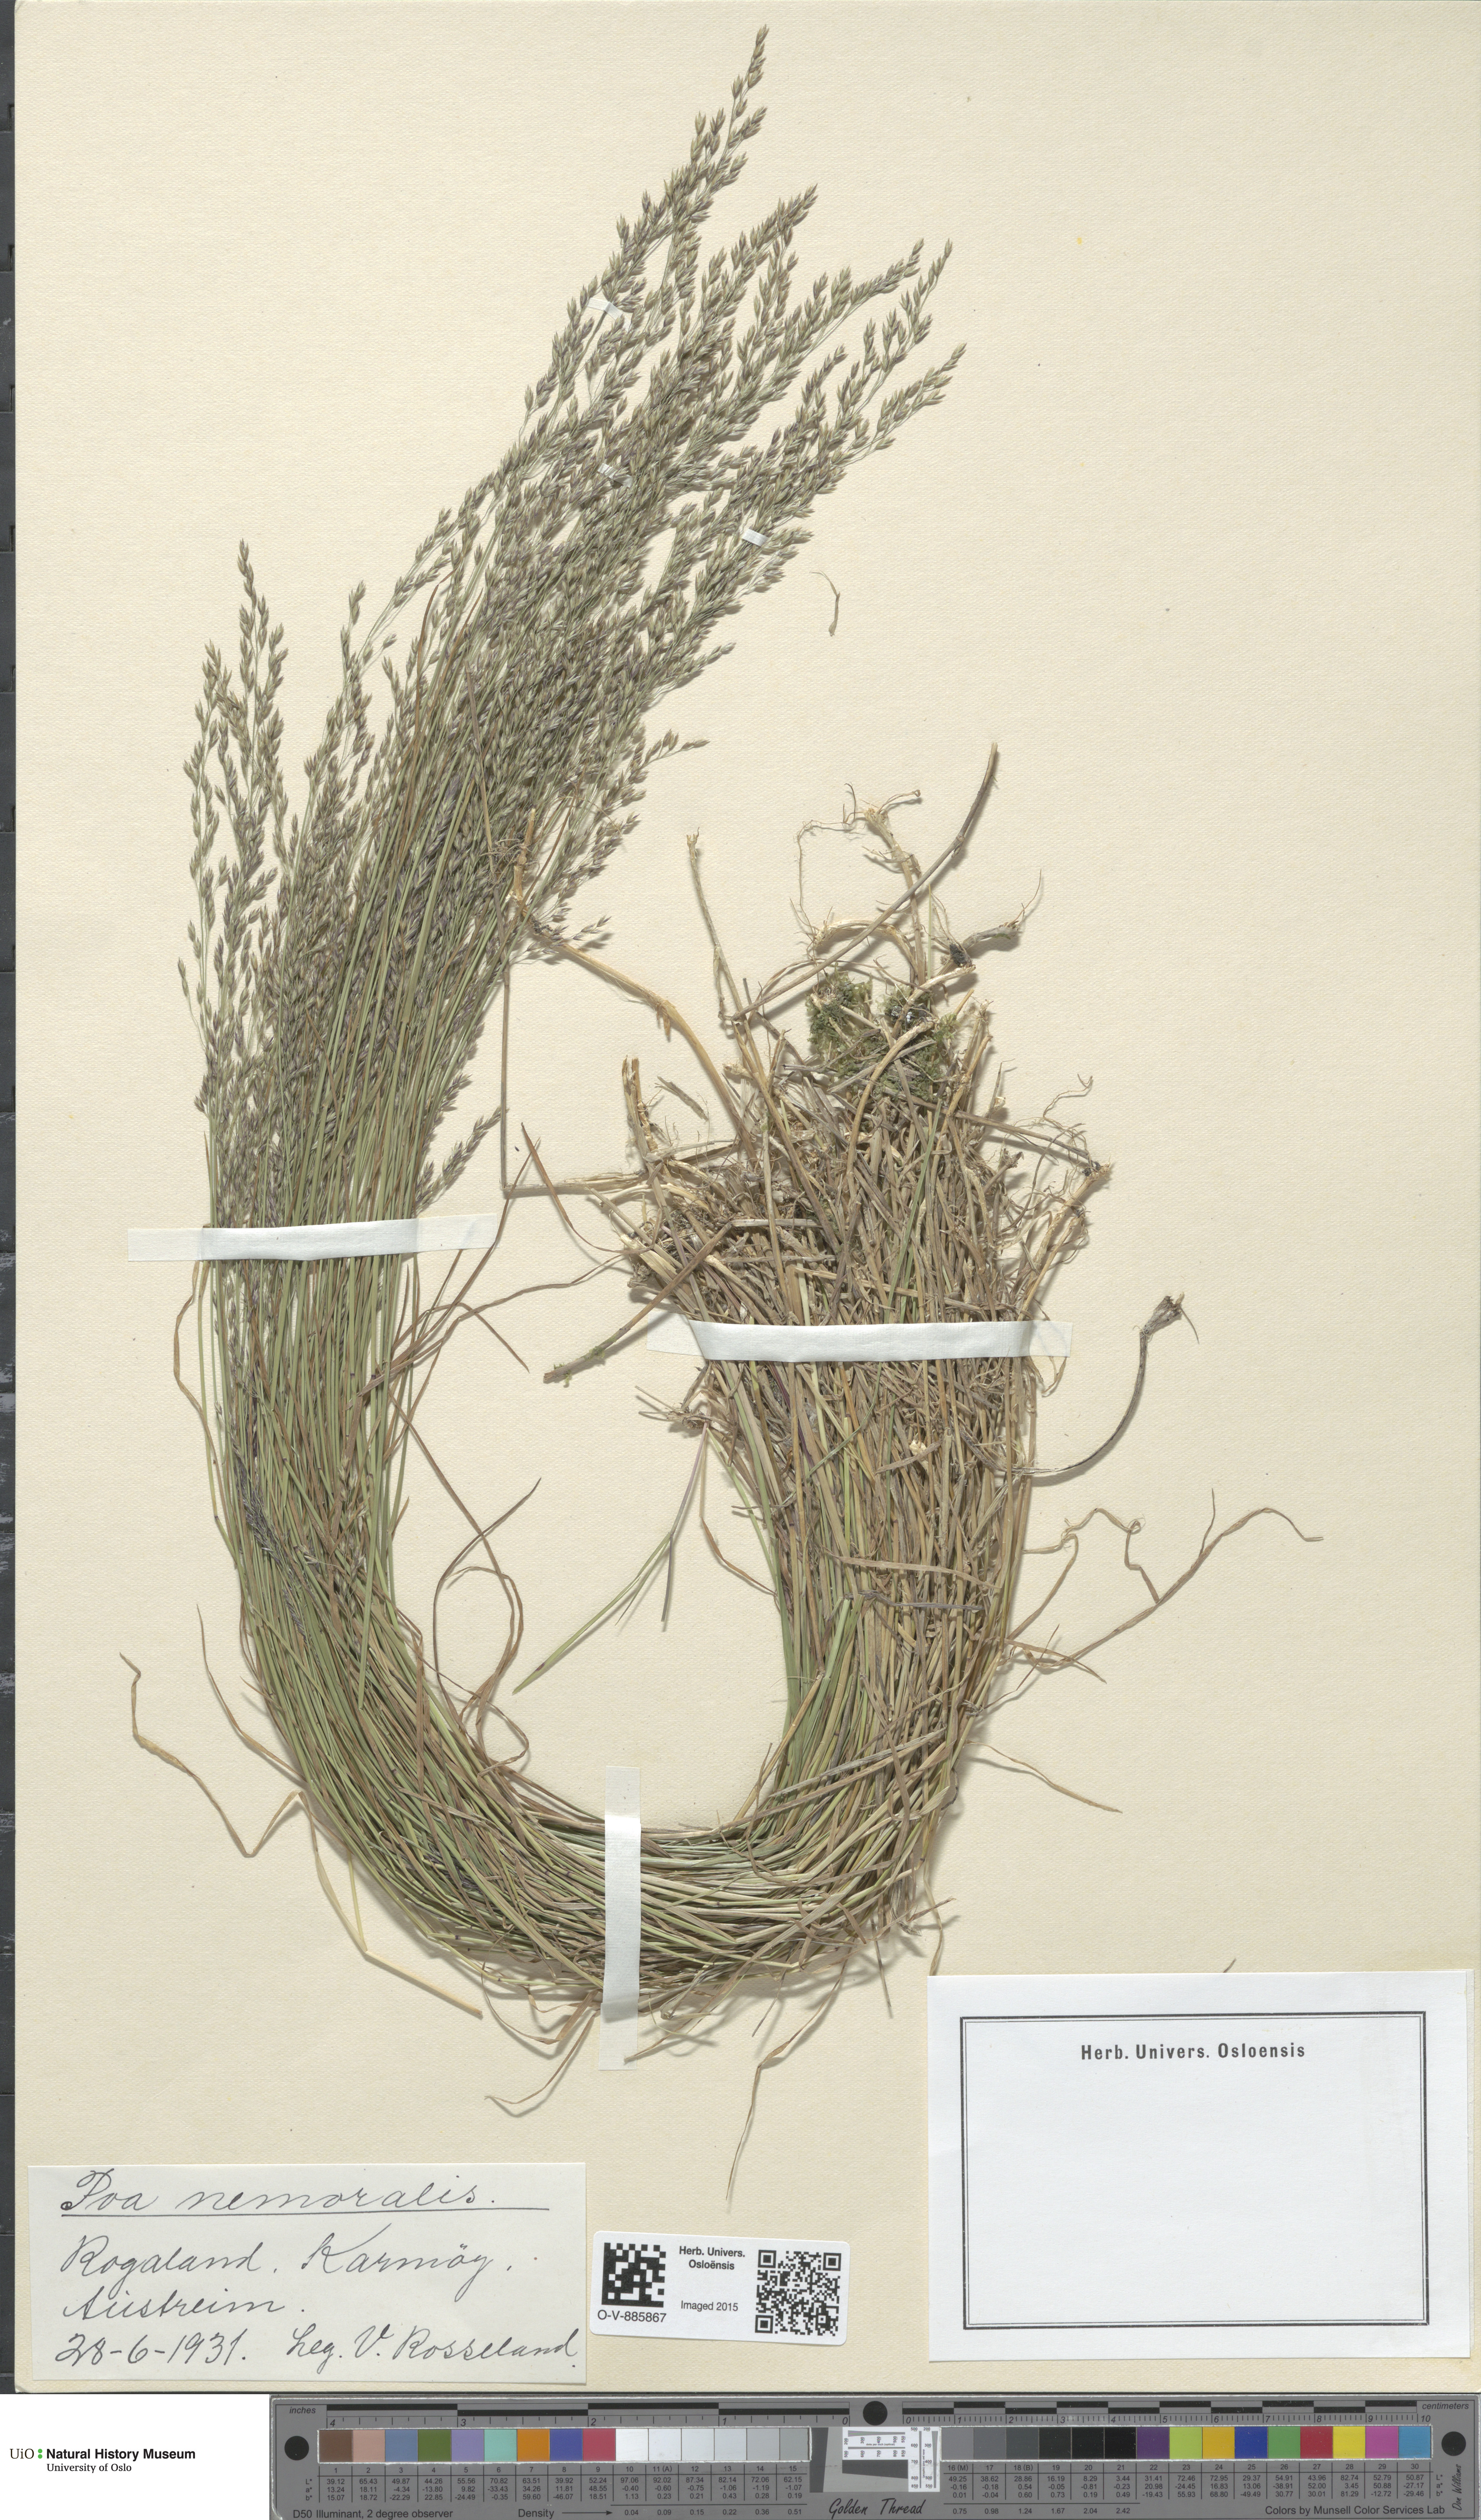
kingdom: Plantae
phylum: Tracheophyta
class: Liliopsida
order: Poales
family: Poaceae
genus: Poa
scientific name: Poa nemoralis
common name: Wood bluegrass
